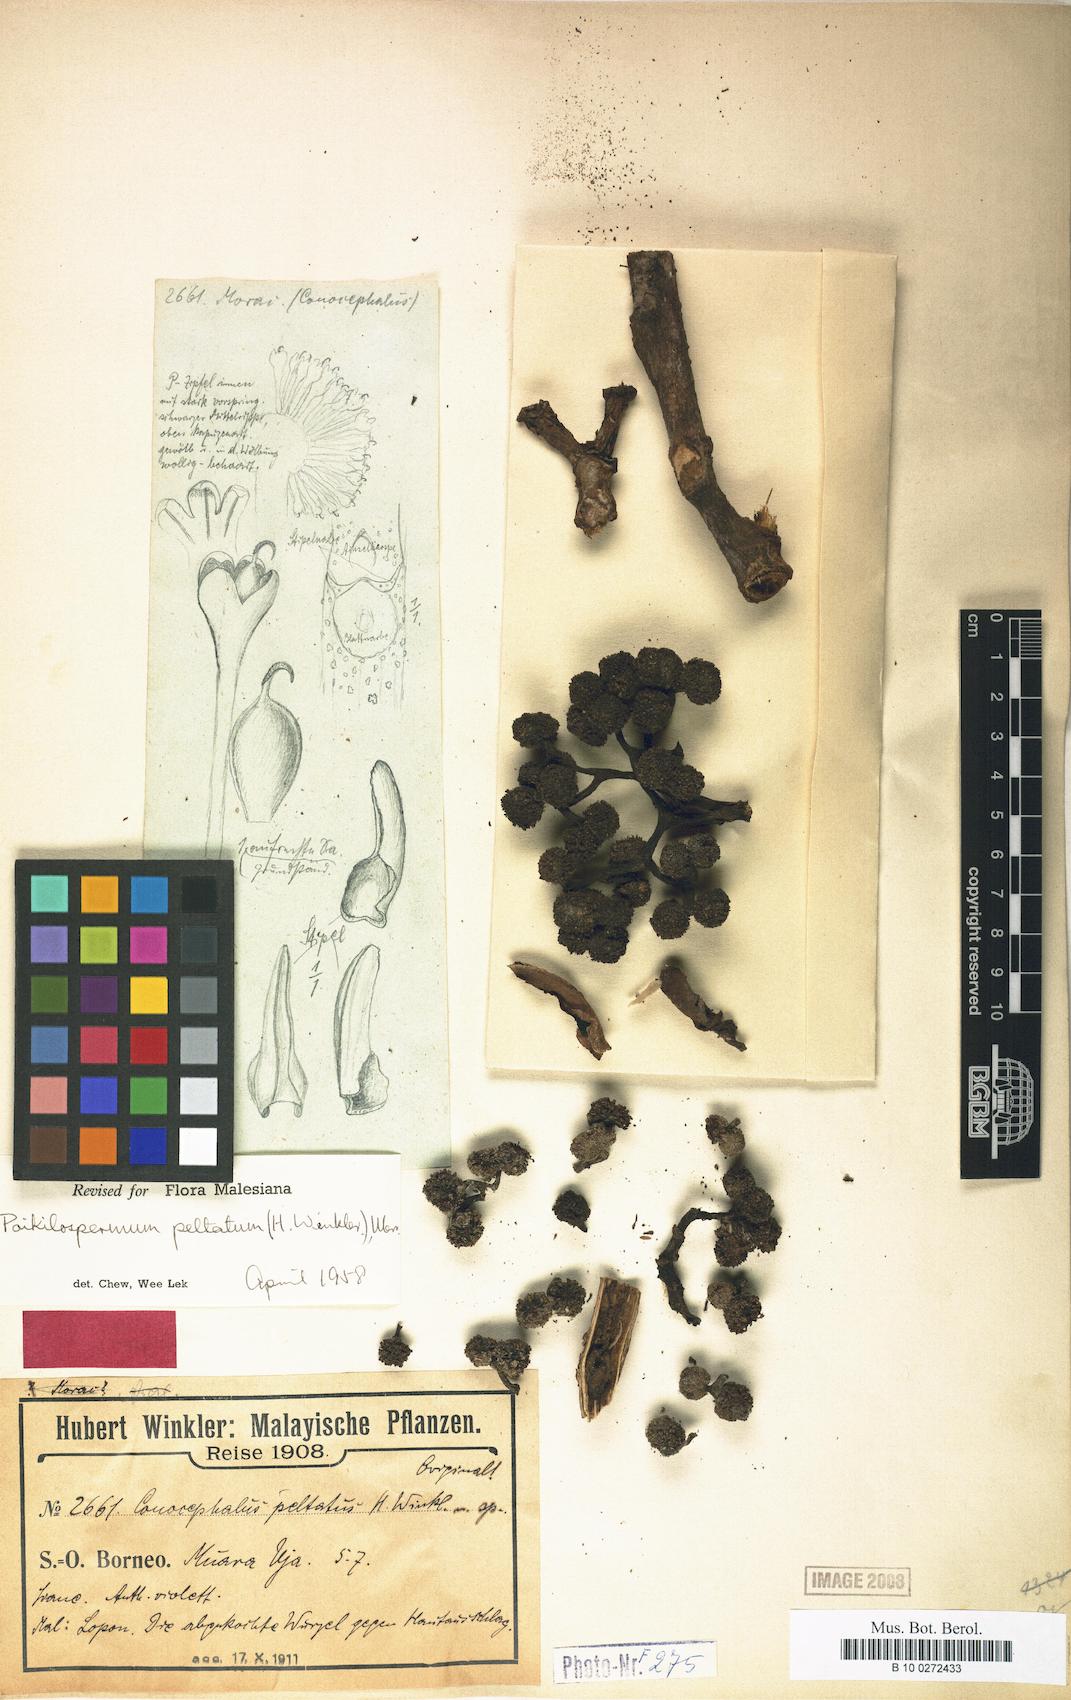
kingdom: Plantae
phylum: Tracheophyta
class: Magnoliopsida
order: Rosales
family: Urticaceae
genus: Poikilospermum
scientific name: Poikilospermum peltatum
